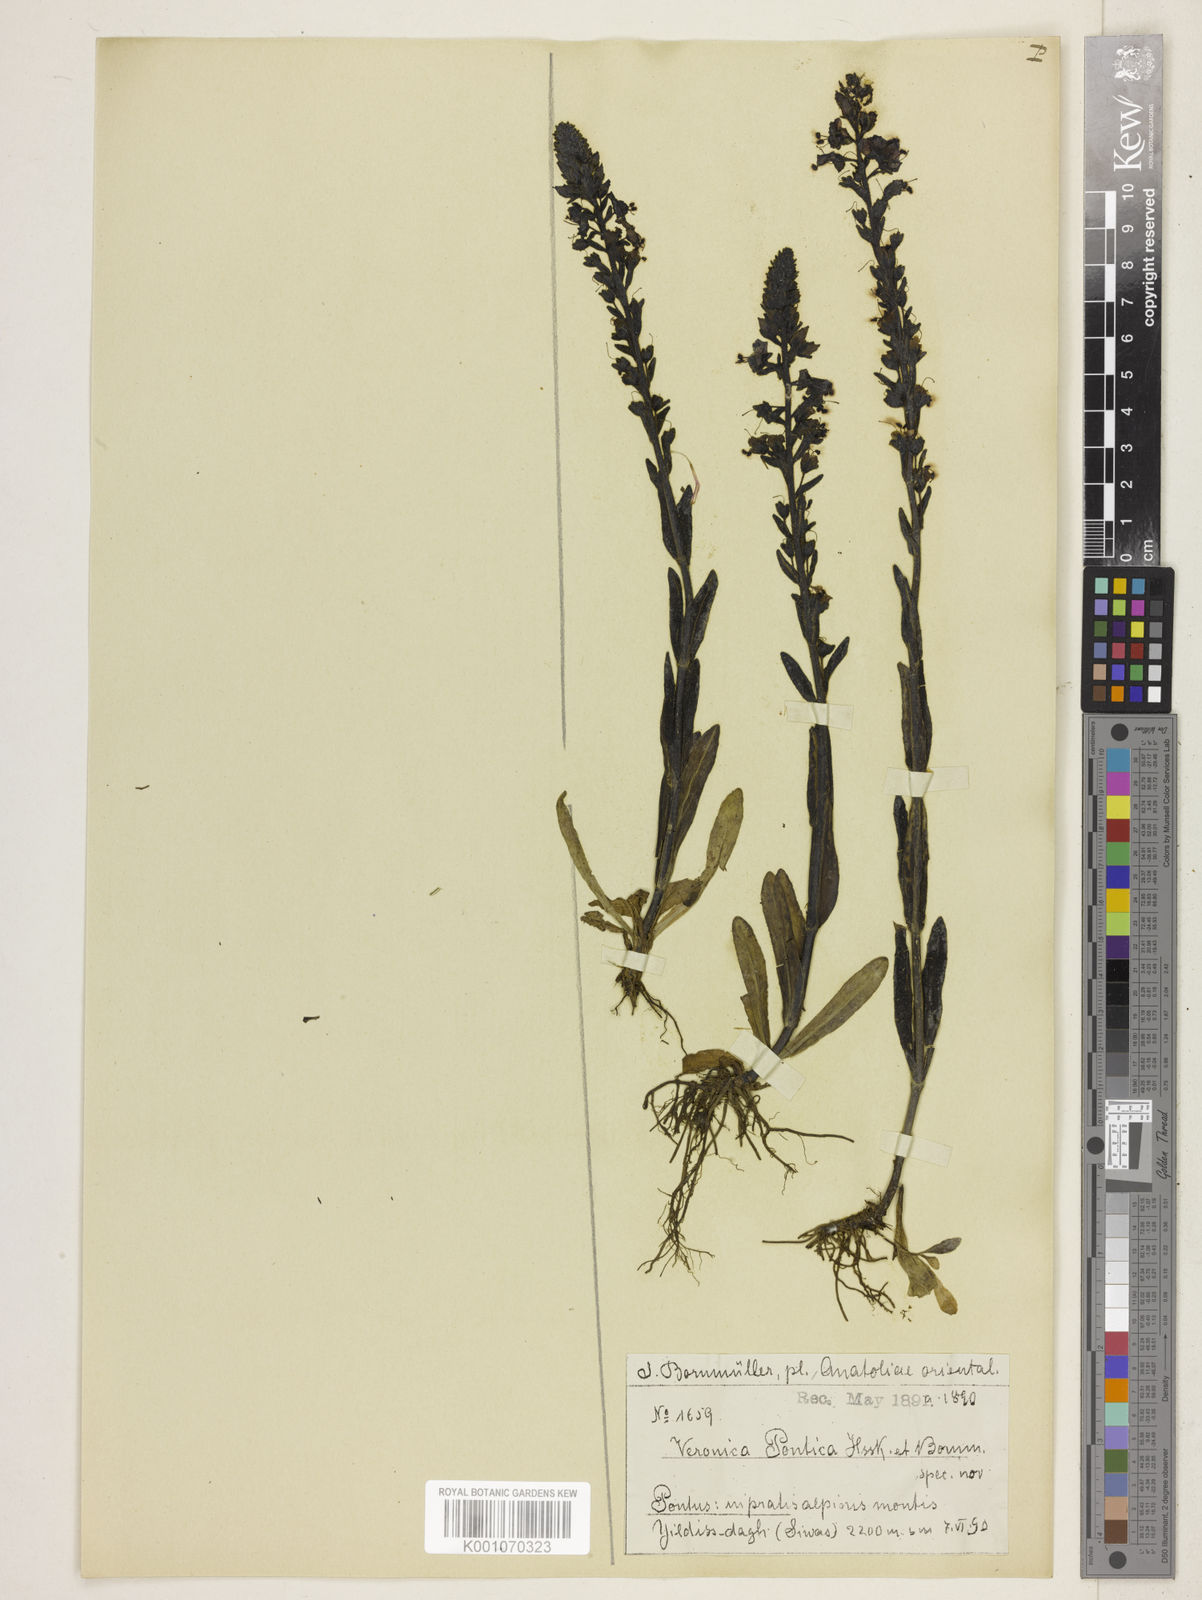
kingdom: Plantae
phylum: Tracheophyta
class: Magnoliopsida
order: Lamiales
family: Plantaginaceae
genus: Veronica
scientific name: Veronica gentianoides
